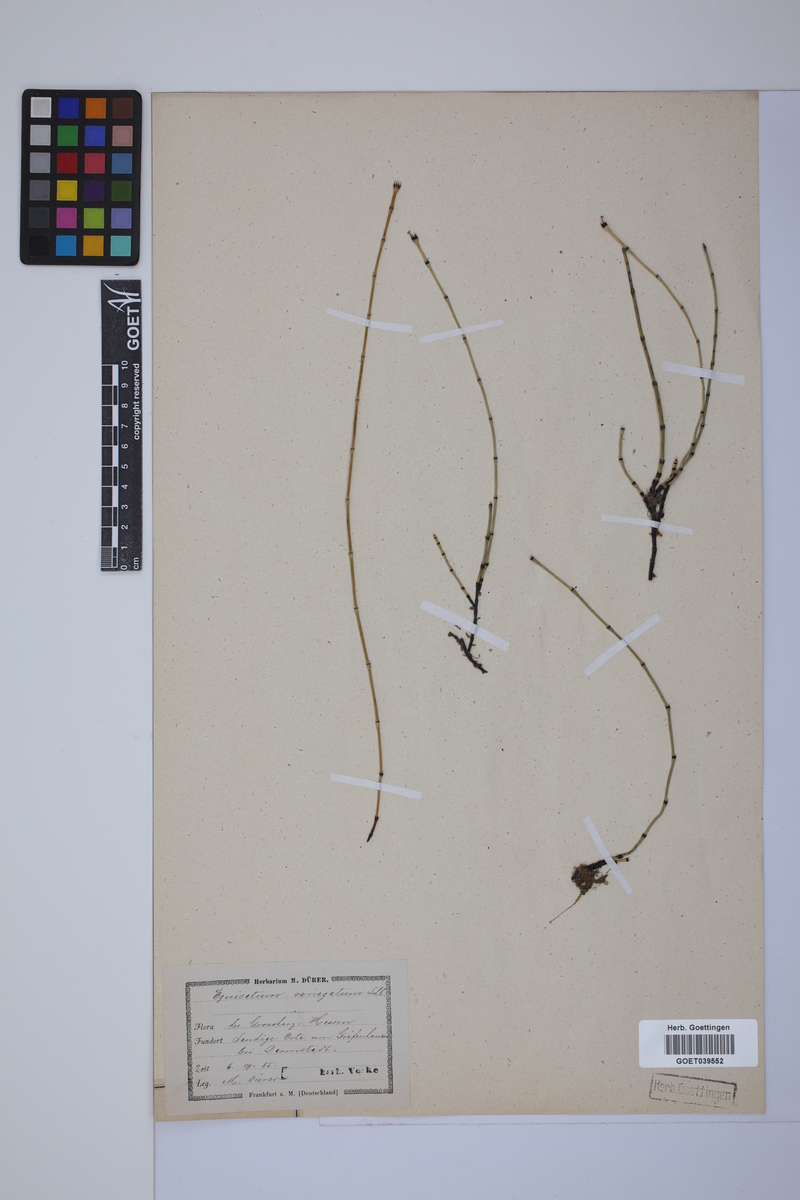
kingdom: Plantae
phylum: Tracheophyta
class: Polypodiopsida
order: Equisetales
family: Equisetaceae
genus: Equisetum
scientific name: Equisetum variegatum
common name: Variegated horsetail
